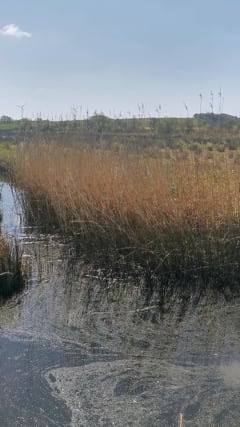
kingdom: Animalia
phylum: Chordata
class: Aves
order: Passeriformes
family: Acrocephalidae
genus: Acrocephalus
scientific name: Acrocephalus scirpaceus
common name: Eurasian reed warbler
